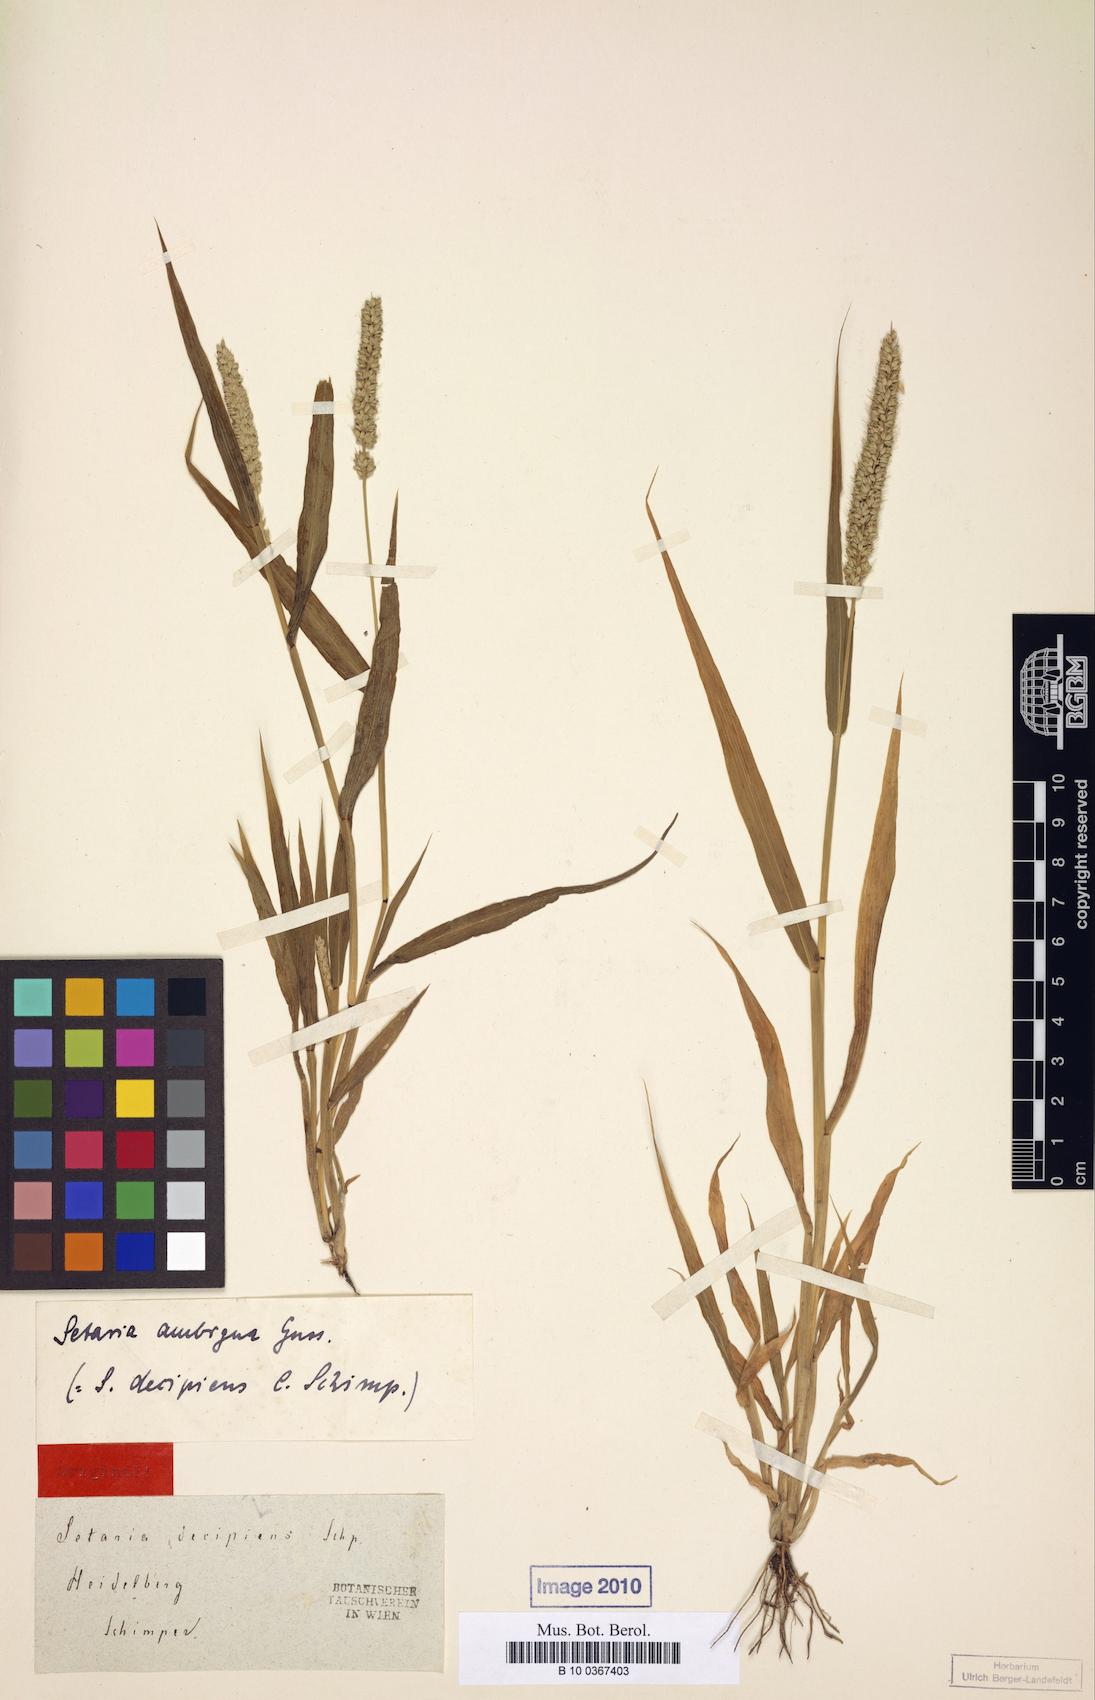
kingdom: Plantae
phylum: Tracheophyta
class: Liliopsida
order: Poales
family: Poaceae
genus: Setaria
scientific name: Setaria verticillata
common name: Hooked bristlegrass
